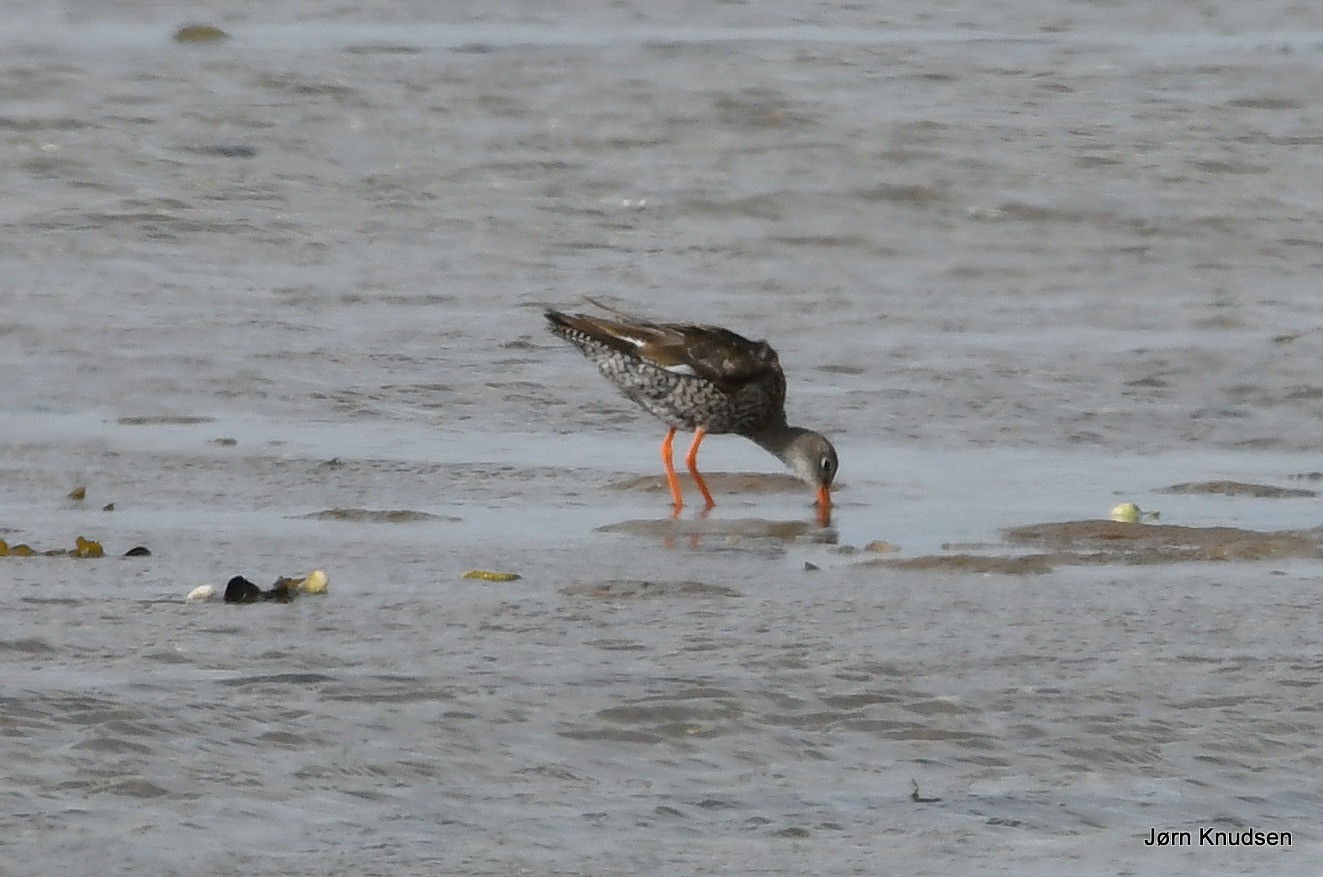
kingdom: Animalia
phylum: Chordata
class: Aves
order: Charadriiformes
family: Scolopacidae
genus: Tringa
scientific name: Tringa totanus
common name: Rødben
